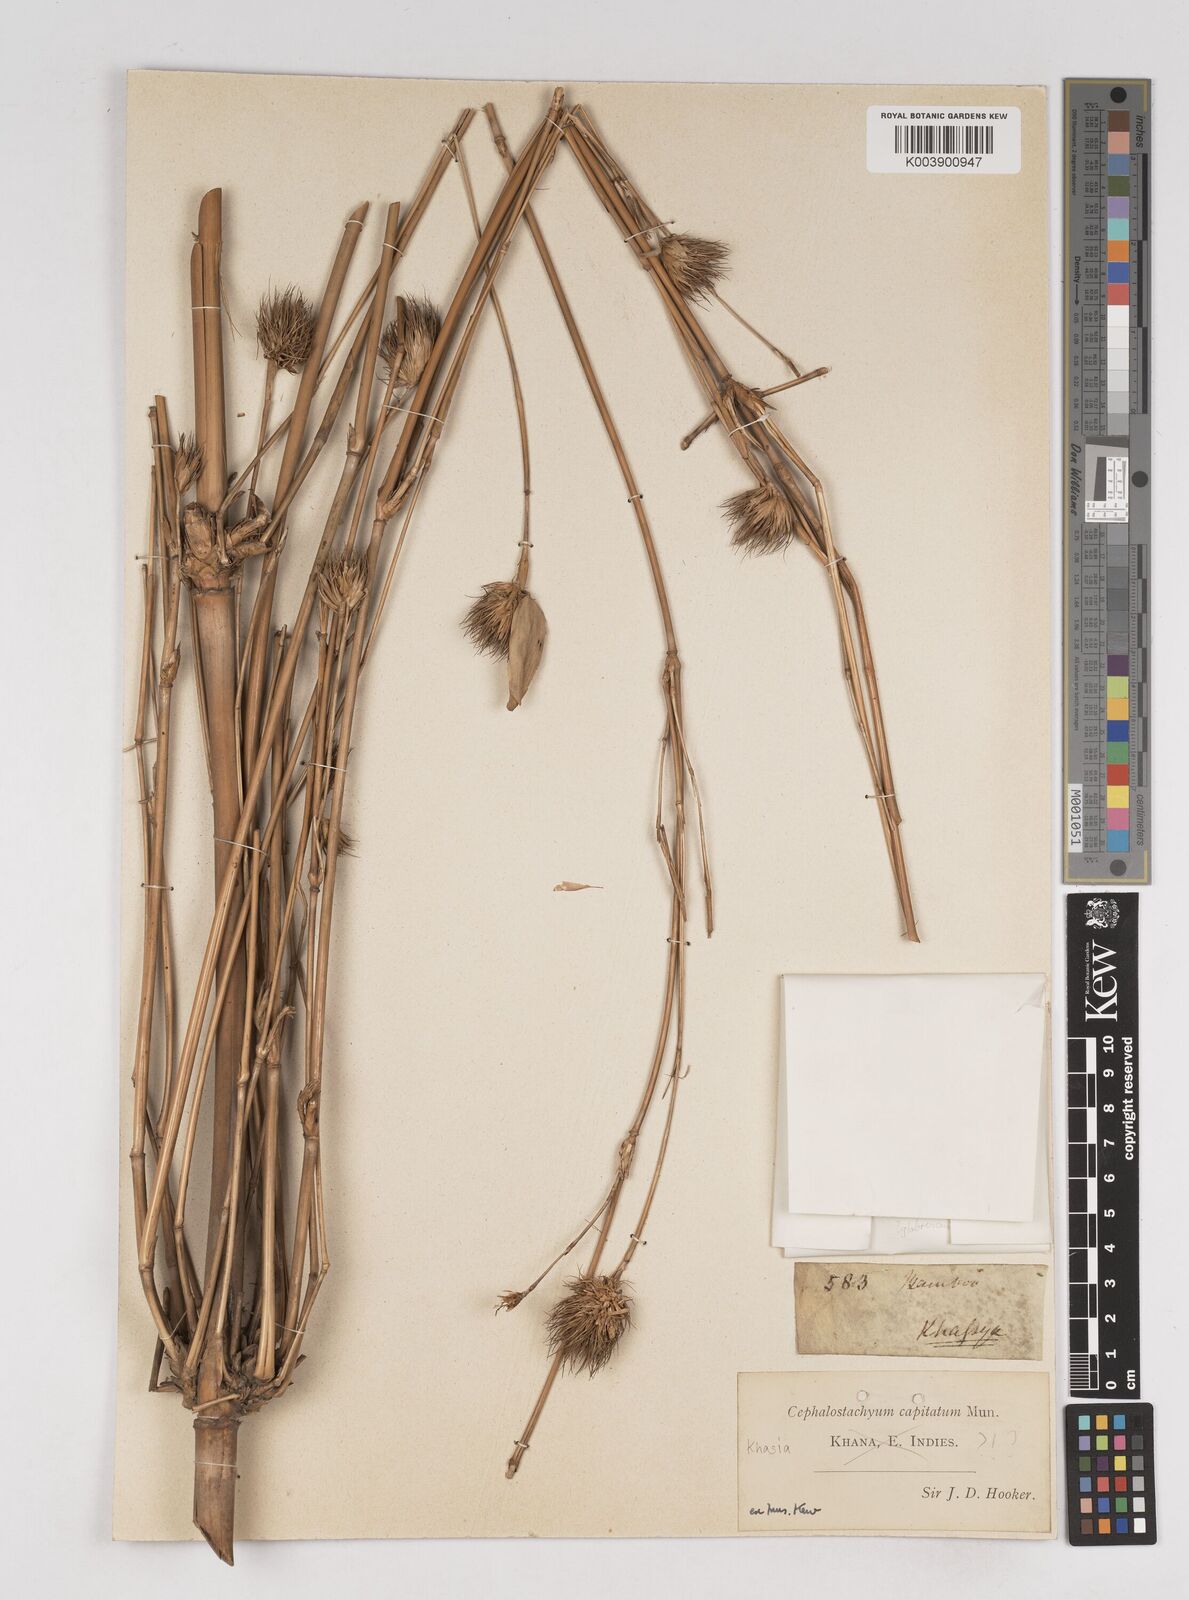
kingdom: Plantae
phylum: Tracheophyta
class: Liliopsida
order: Poales
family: Poaceae
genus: Cephalostachyum
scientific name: Cephalostachyum capitatum
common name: Hollow bamboo
